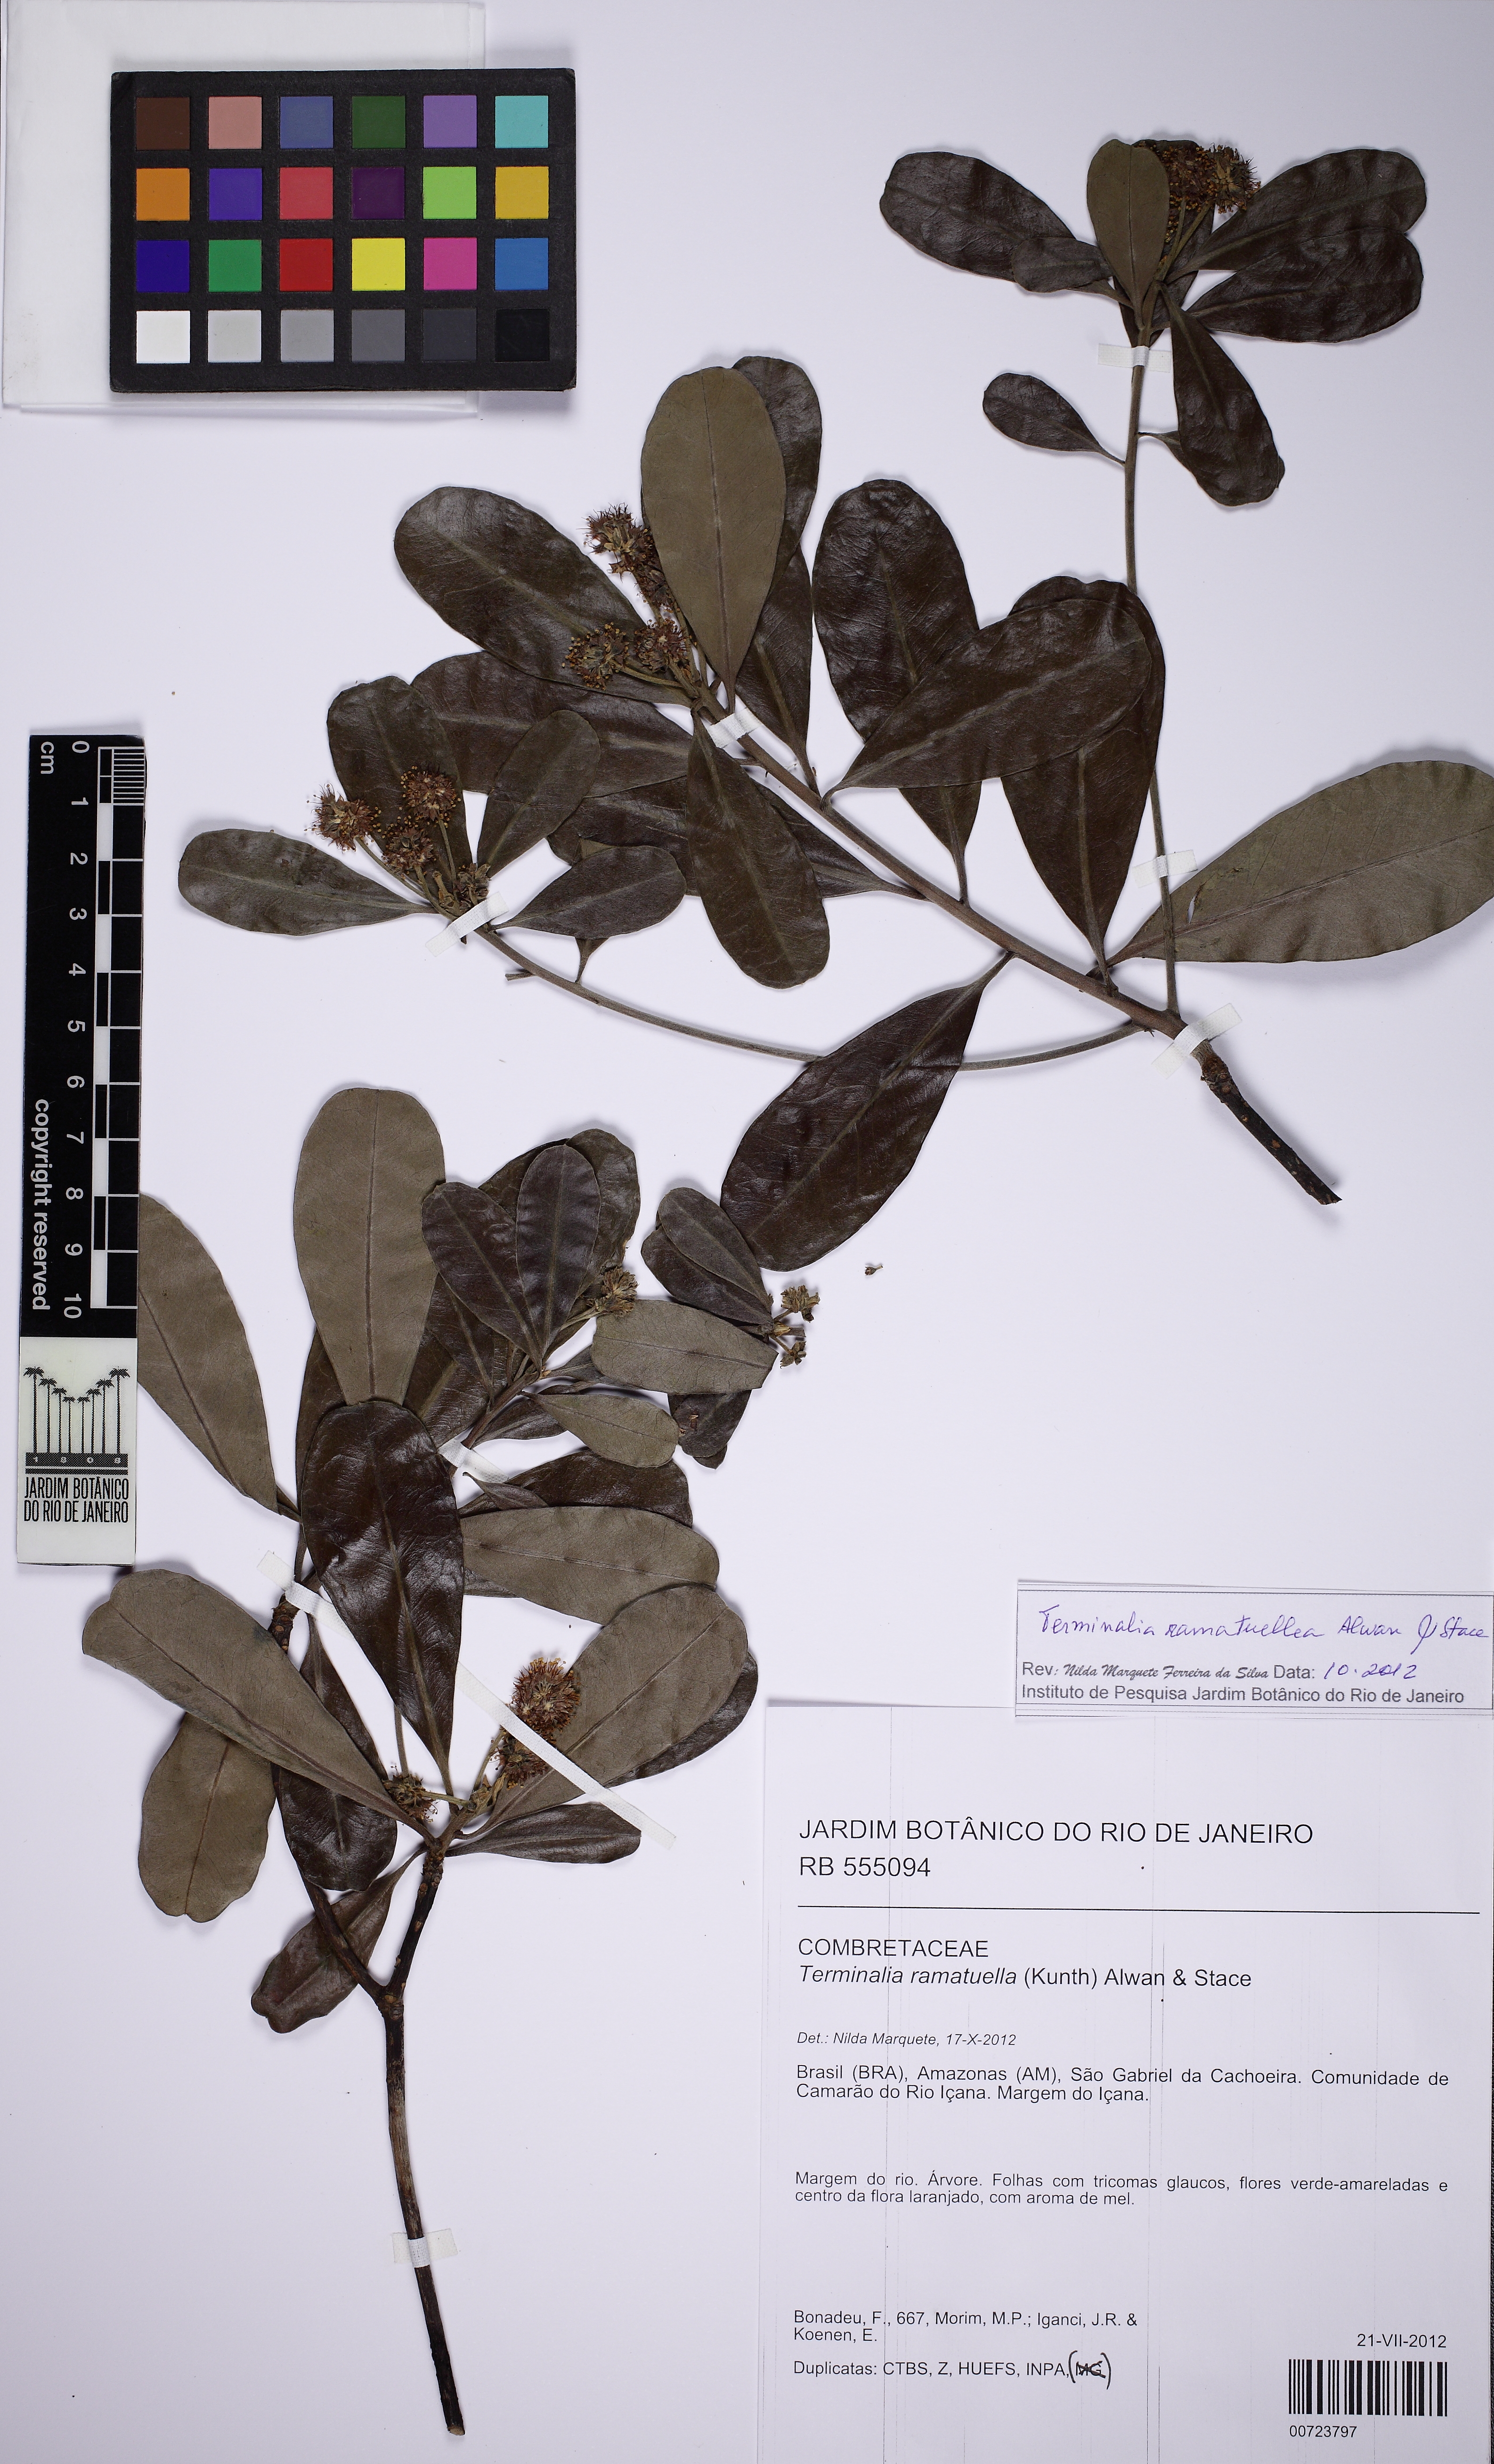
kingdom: Plantae
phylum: Tracheophyta
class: Magnoliopsida
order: Myrtales
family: Combretaceae
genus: Terminalia
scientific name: Terminalia ramatuella
